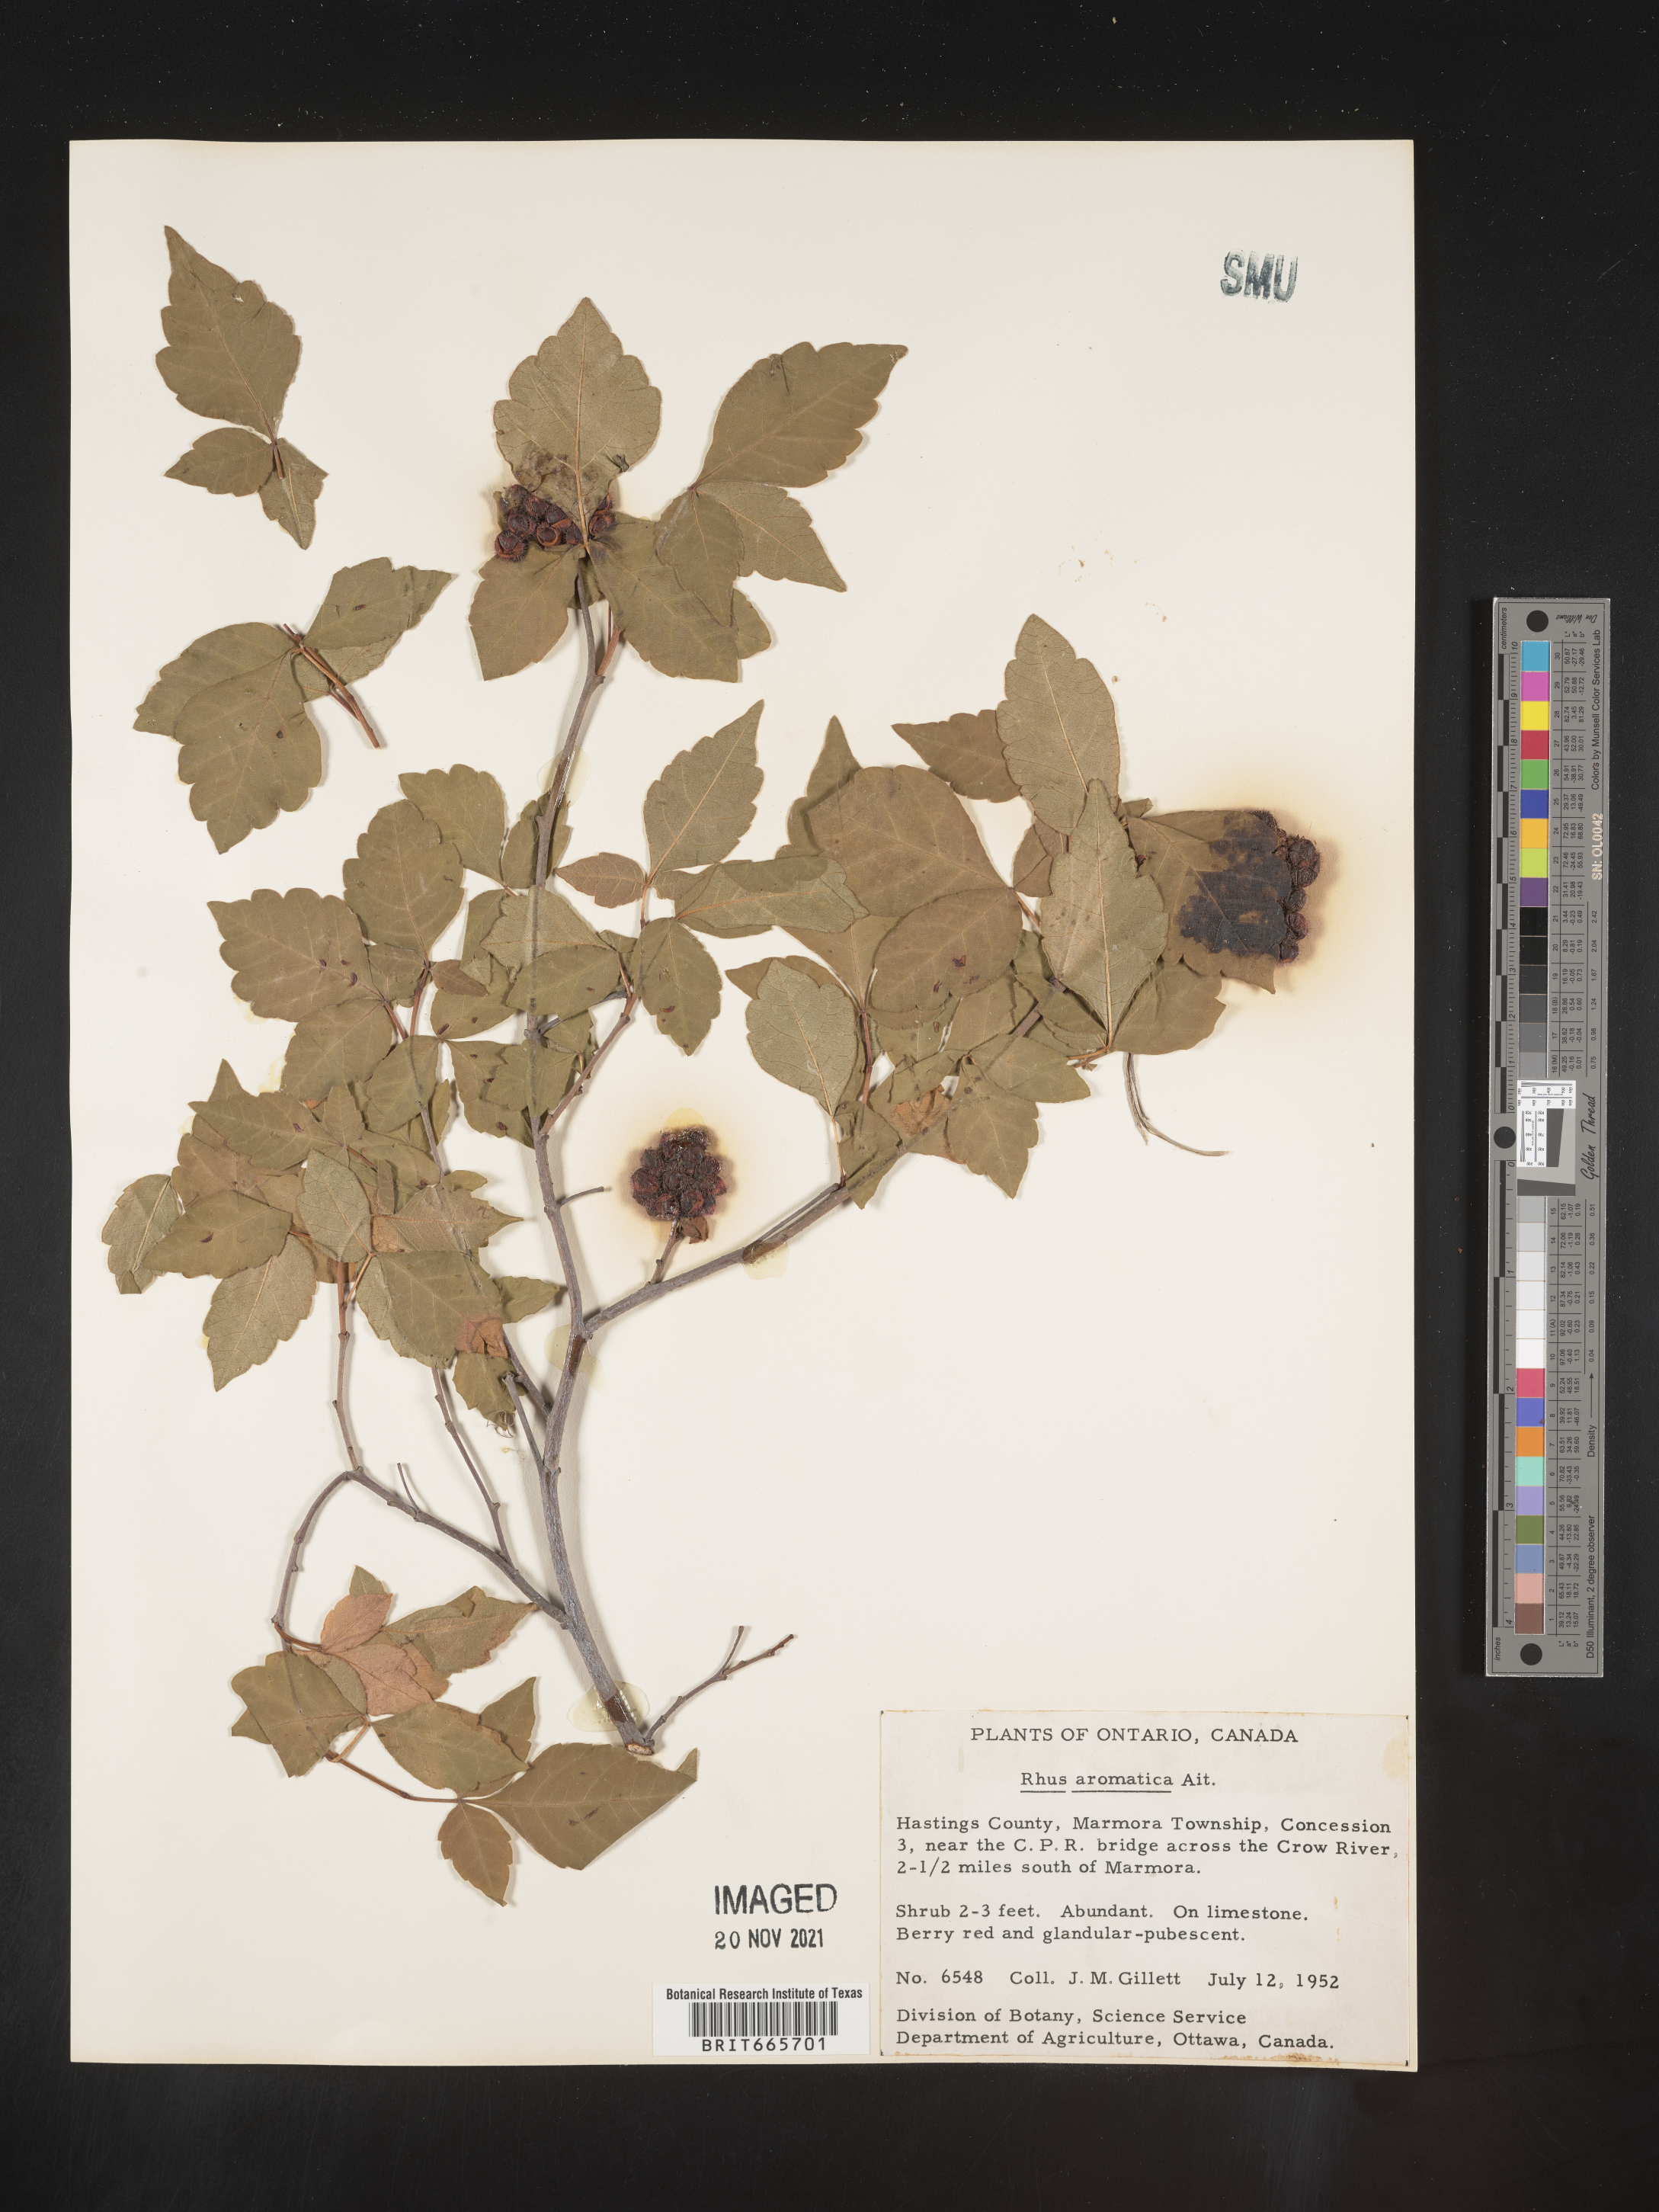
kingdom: Plantae
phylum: Tracheophyta
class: Magnoliopsida
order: Sapindales
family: Anacardiaceae
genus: Rhus
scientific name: Rhus aromatica
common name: Aromatic sumac
